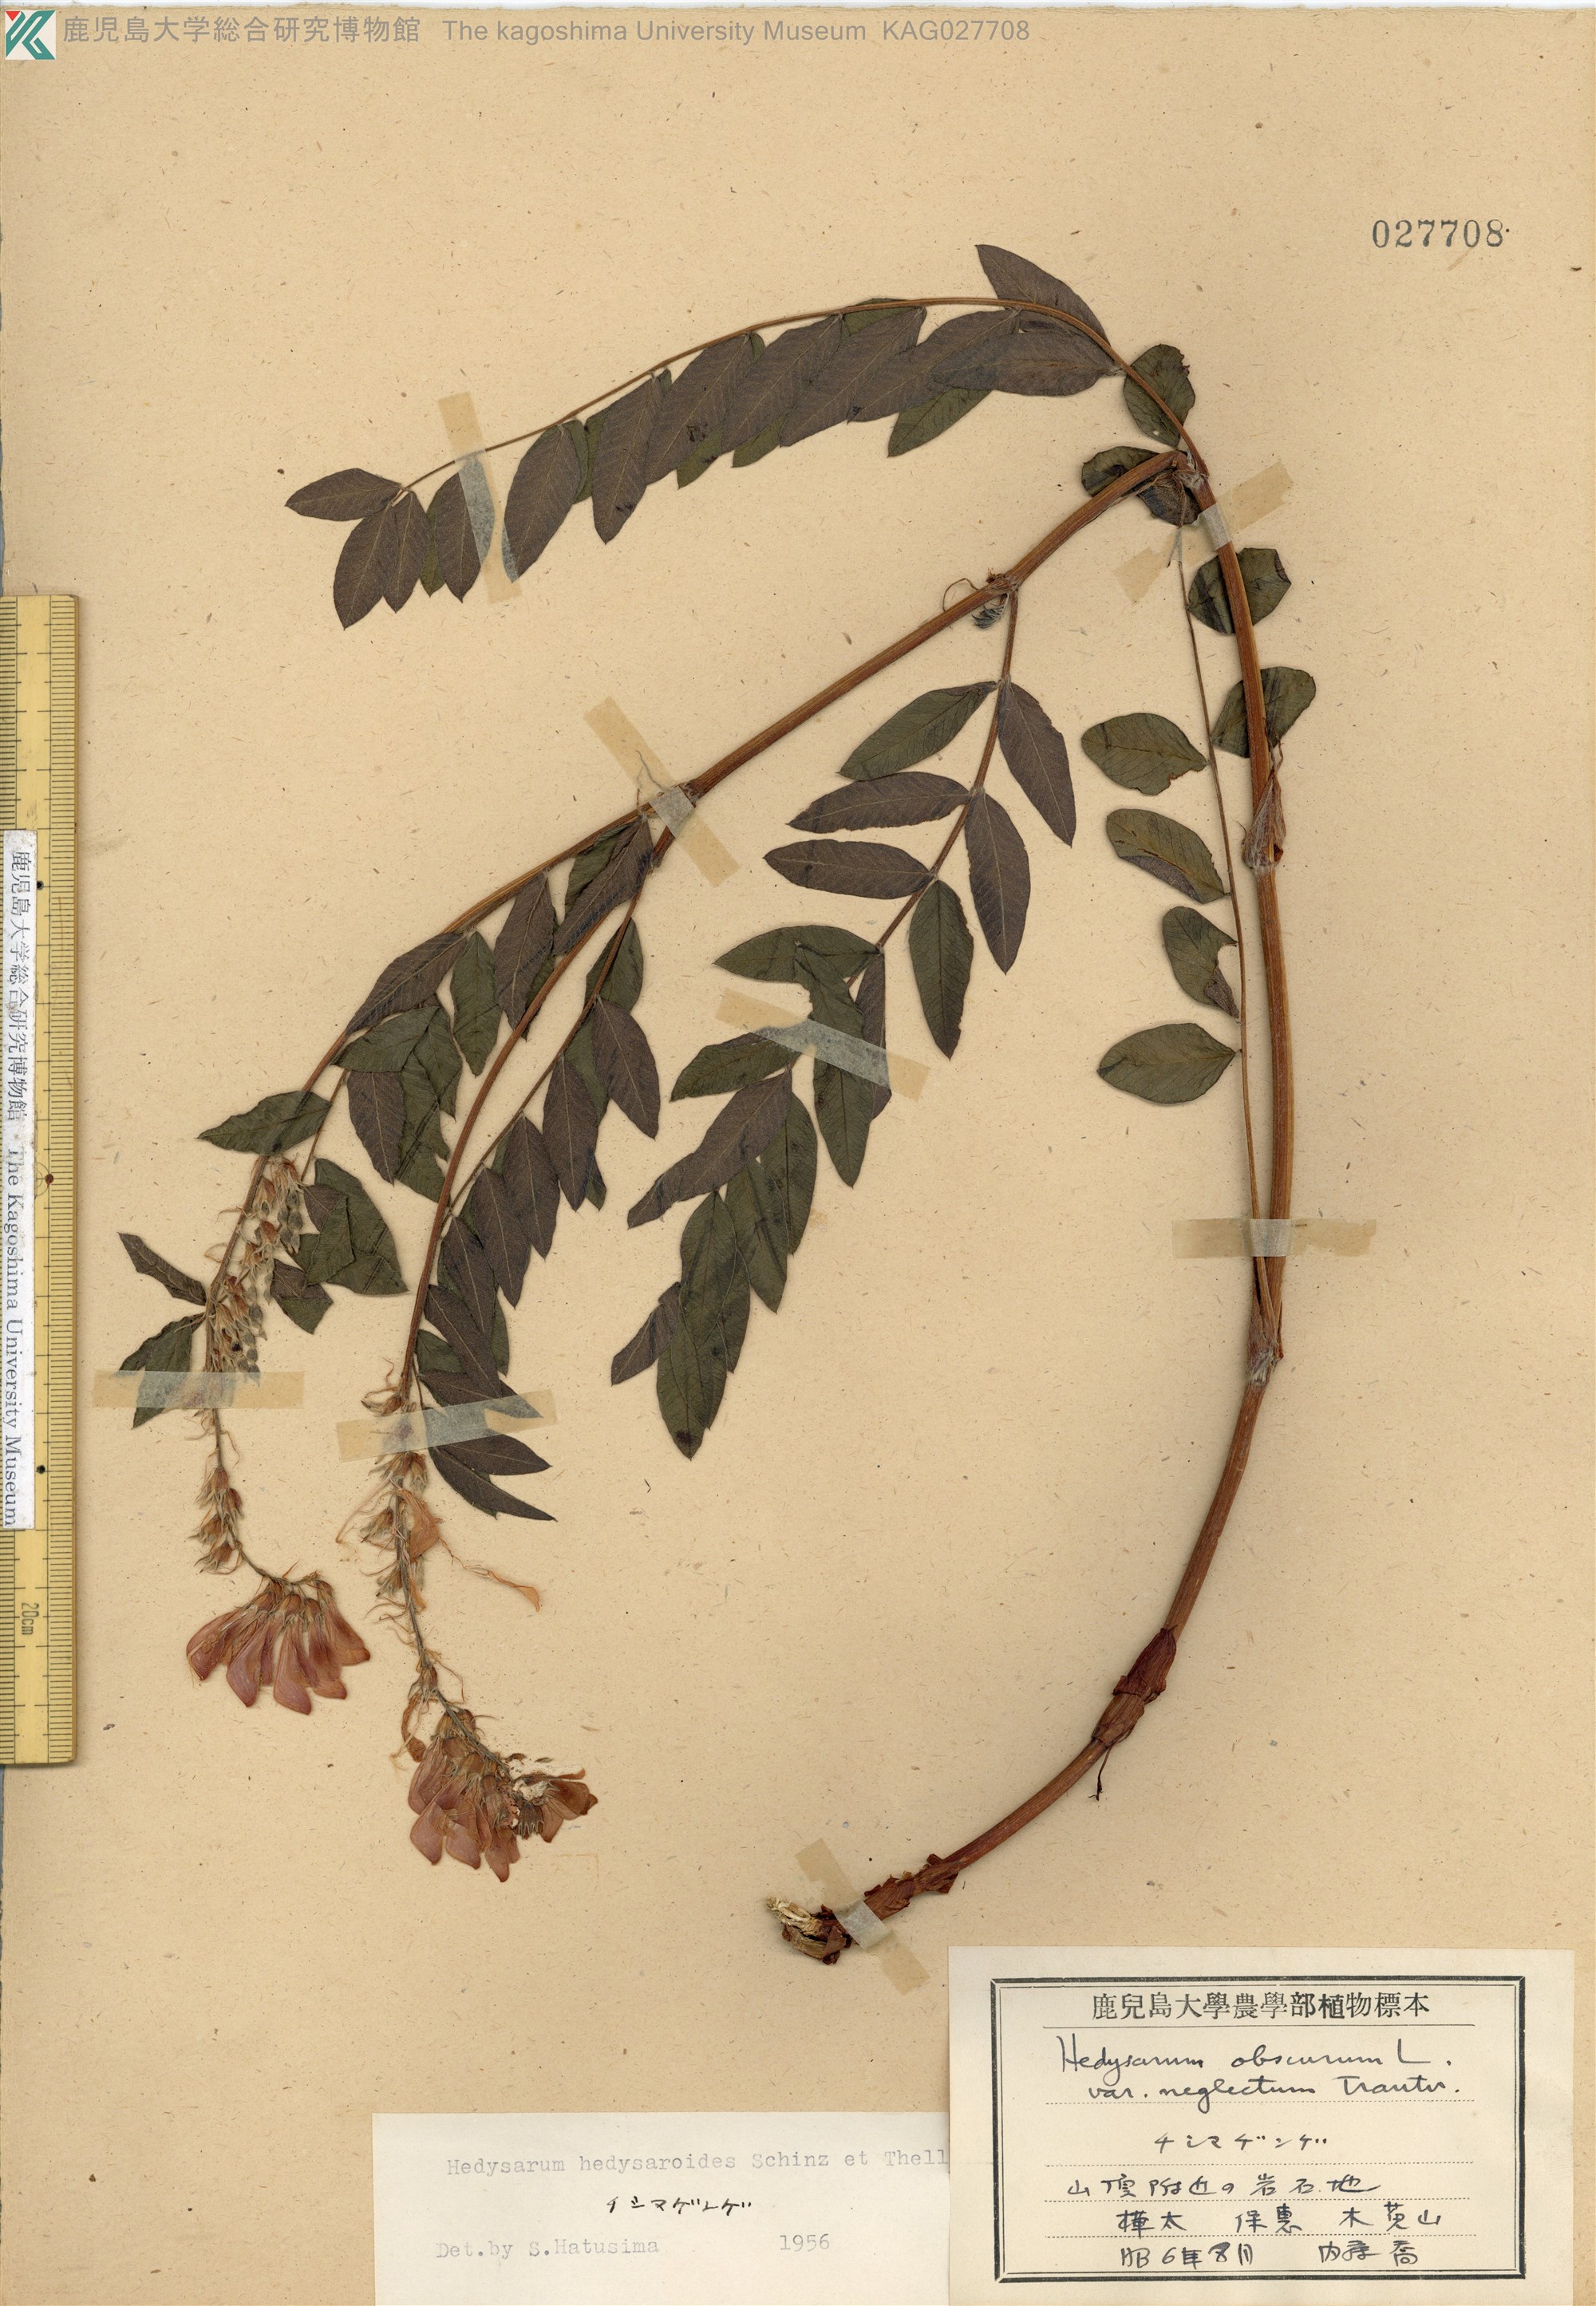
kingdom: Plantae
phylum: Tracheophyta
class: Magnoliopsida
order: Fabales
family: Fabaceae
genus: Hedysarum
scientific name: Hedysarum hedysaroides
